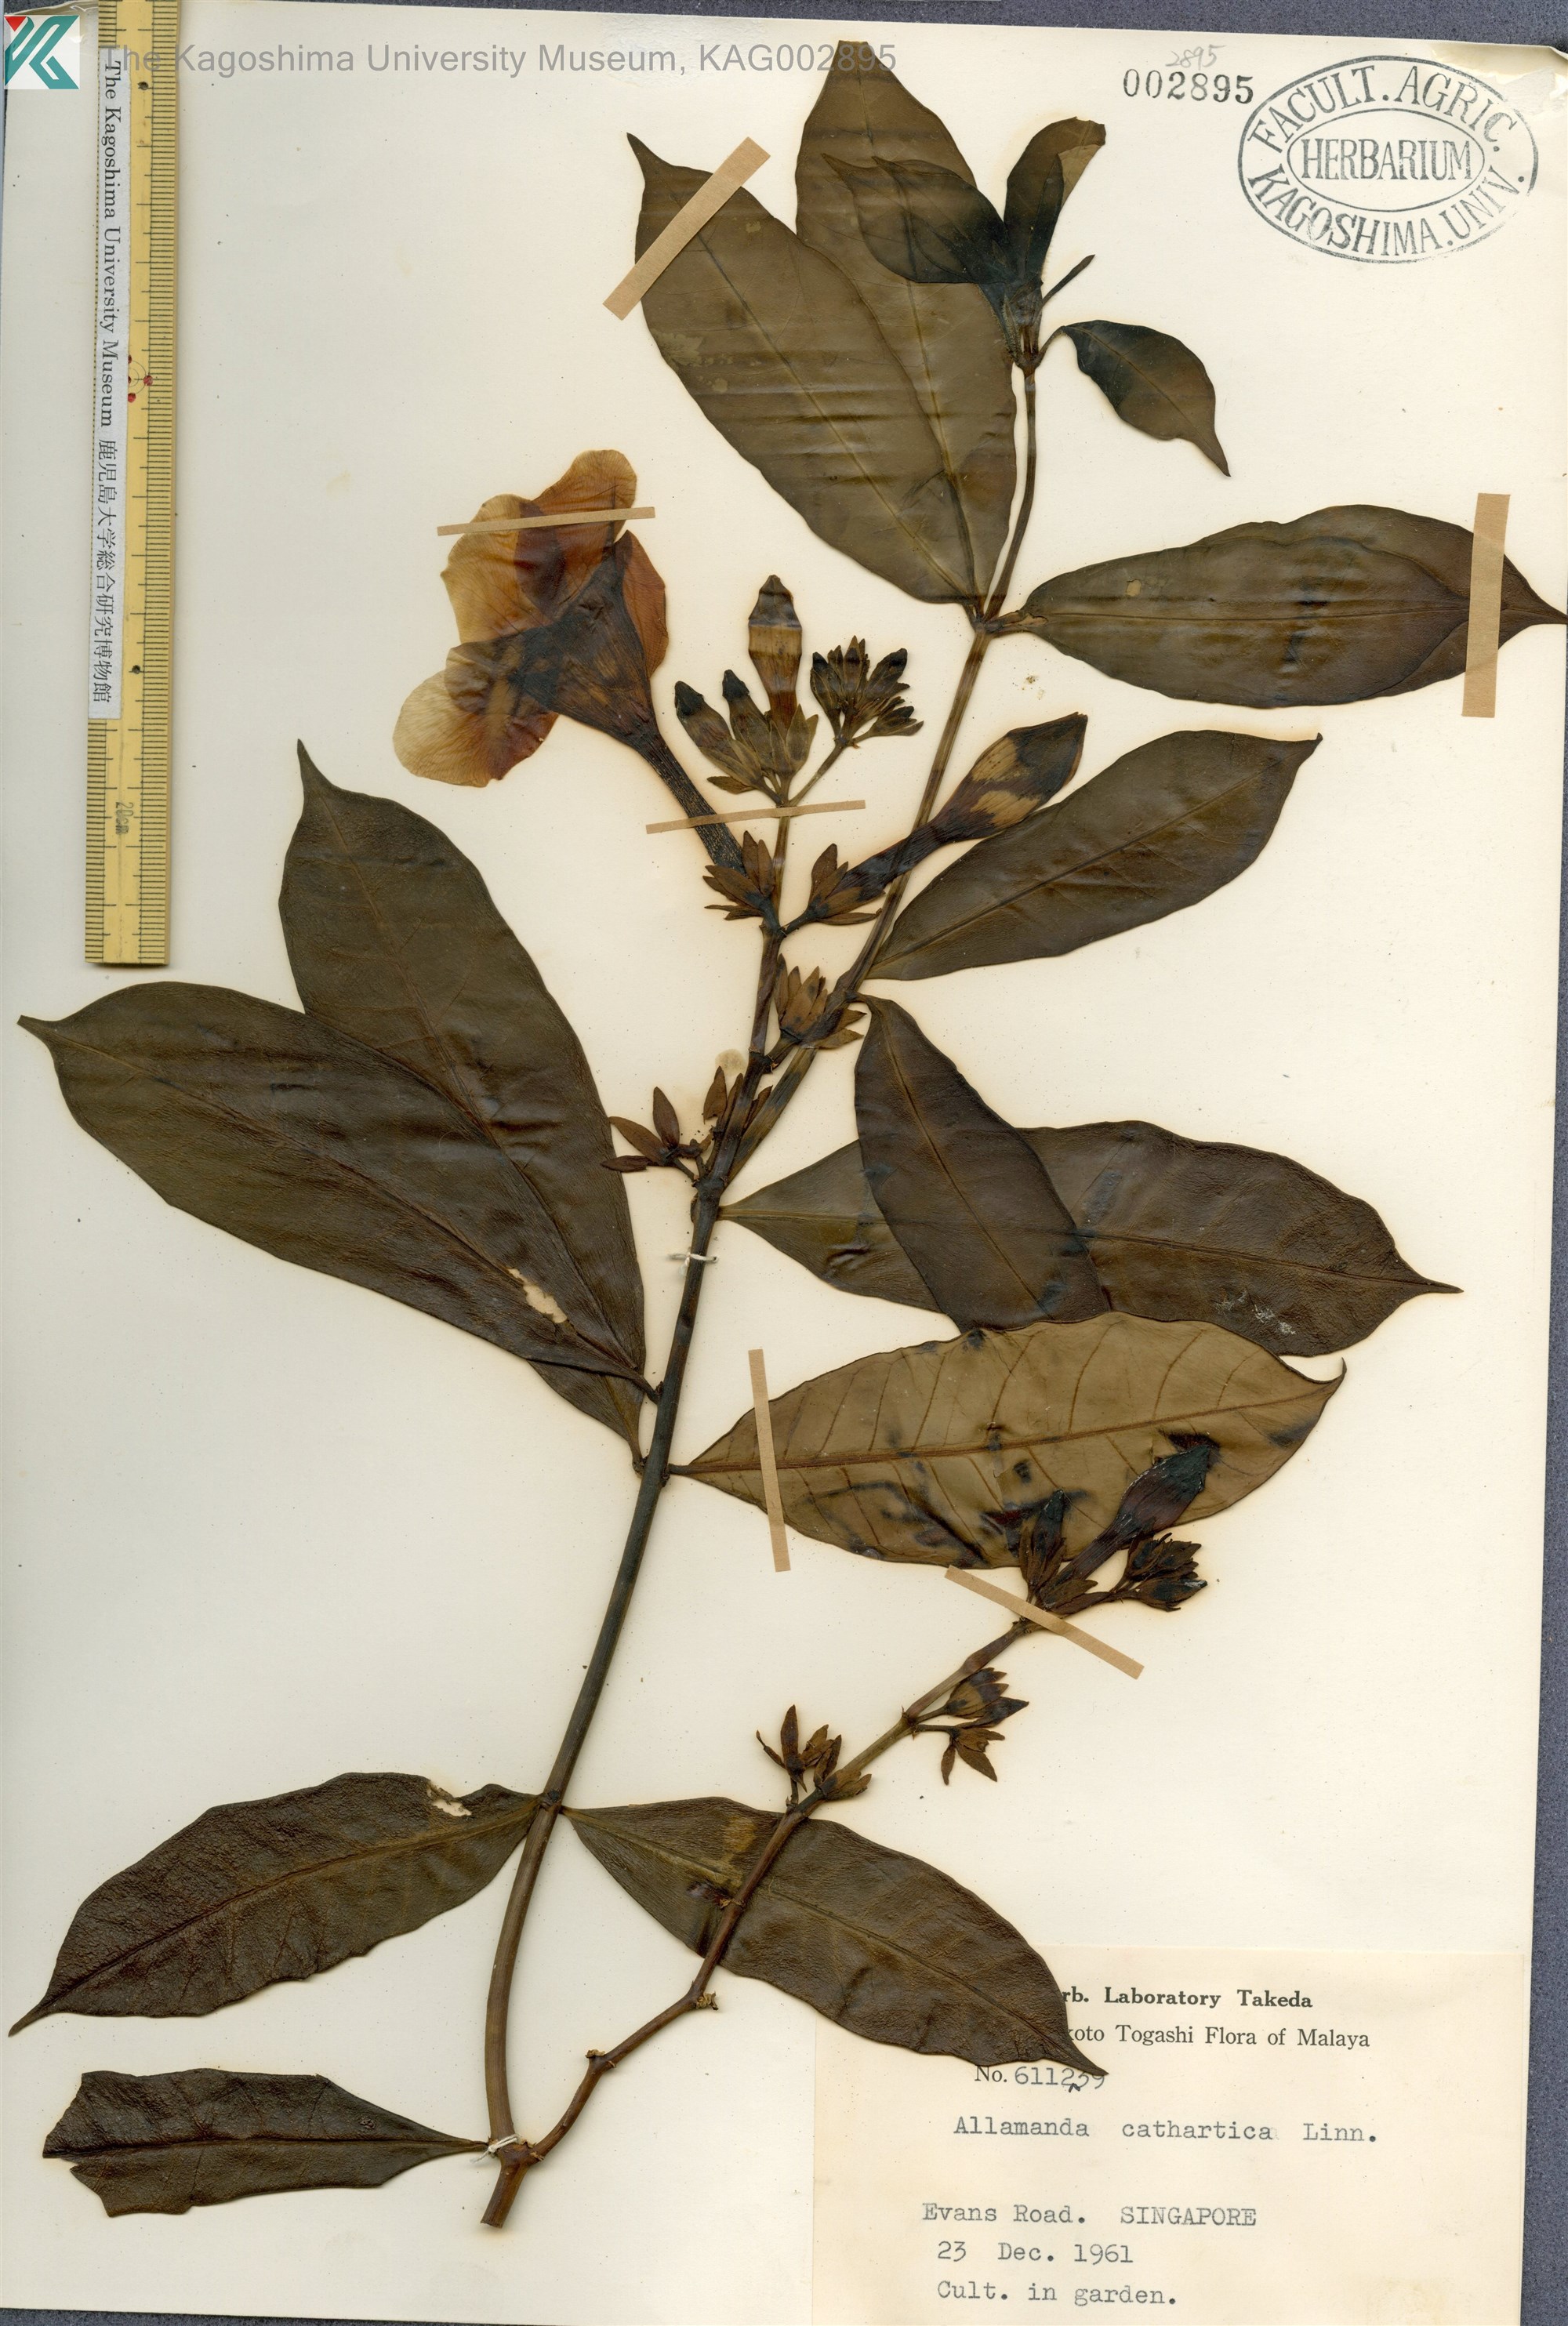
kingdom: Plantae
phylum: Tracheophyta
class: Magnoliopsida
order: Gentianales
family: Apocynaceae
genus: Allamanda
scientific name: Allamanda cathartica
